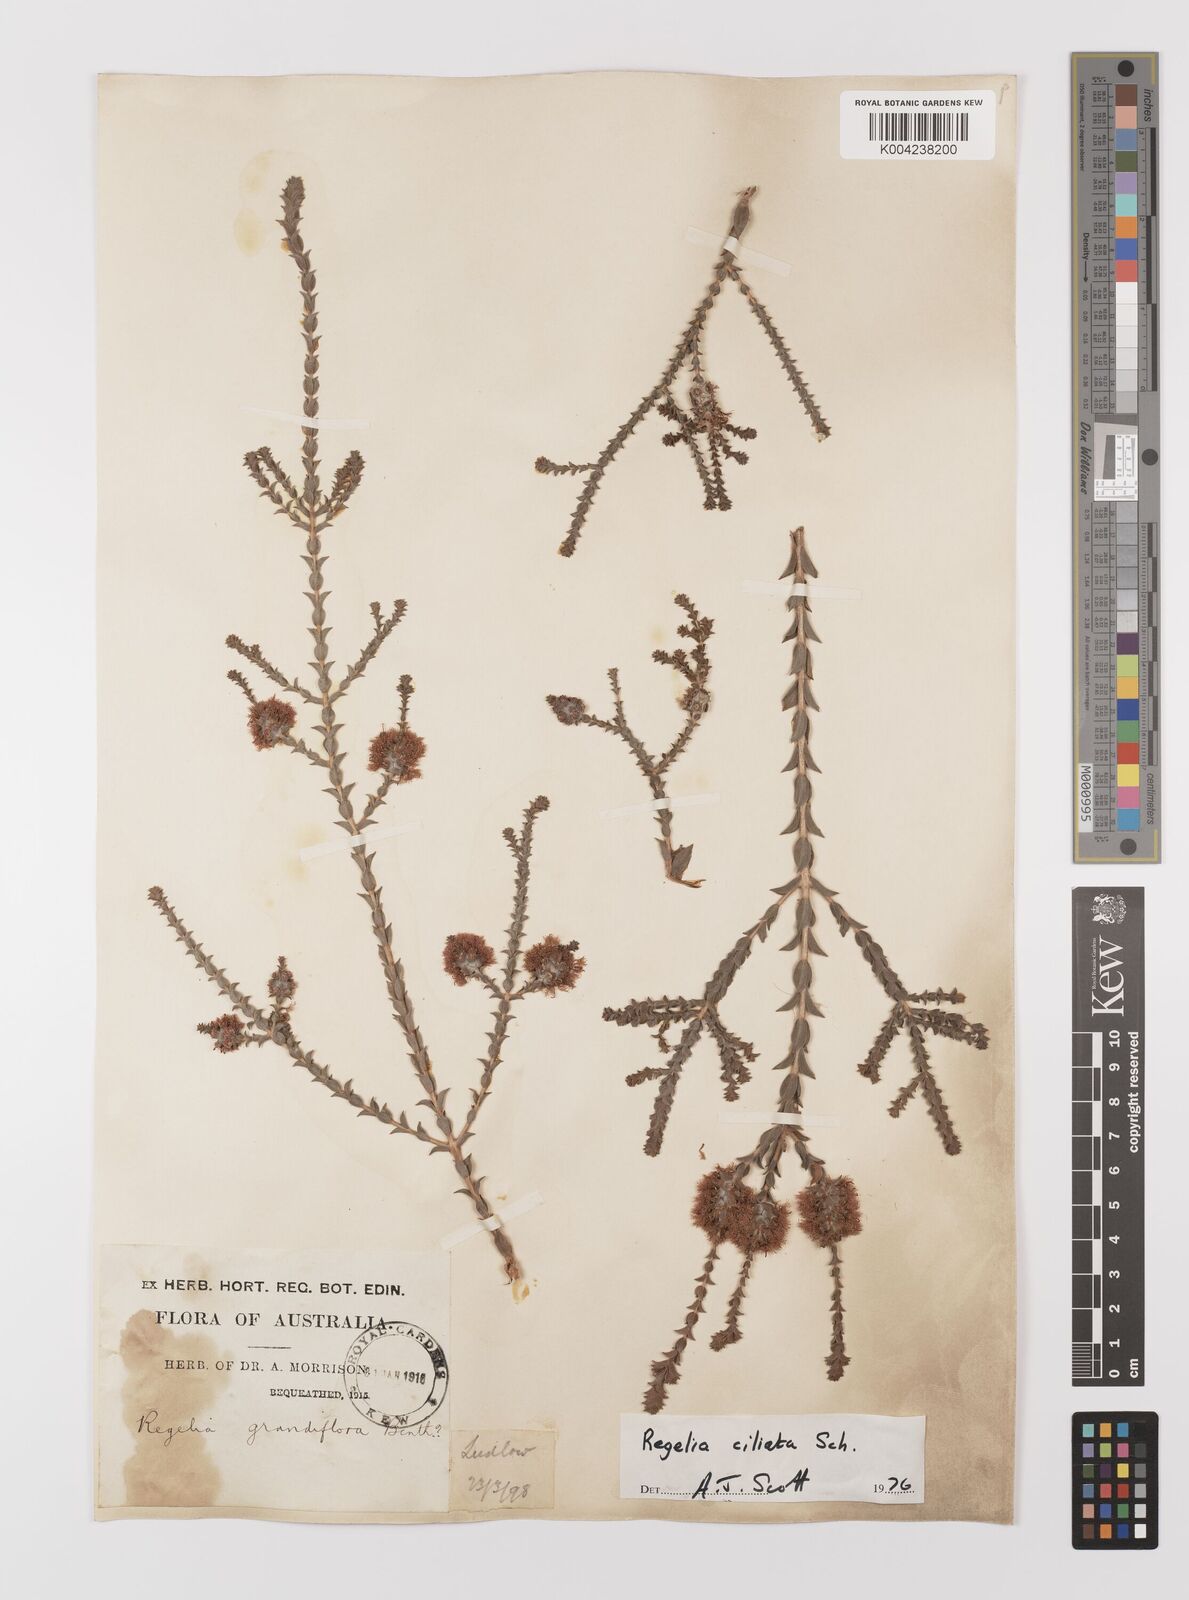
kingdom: Plantae
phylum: Tracheophyta
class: Magnoliopsida
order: Myrtales
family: Myrtaceae
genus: Melaleuca
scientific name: Melaleuca crossota
